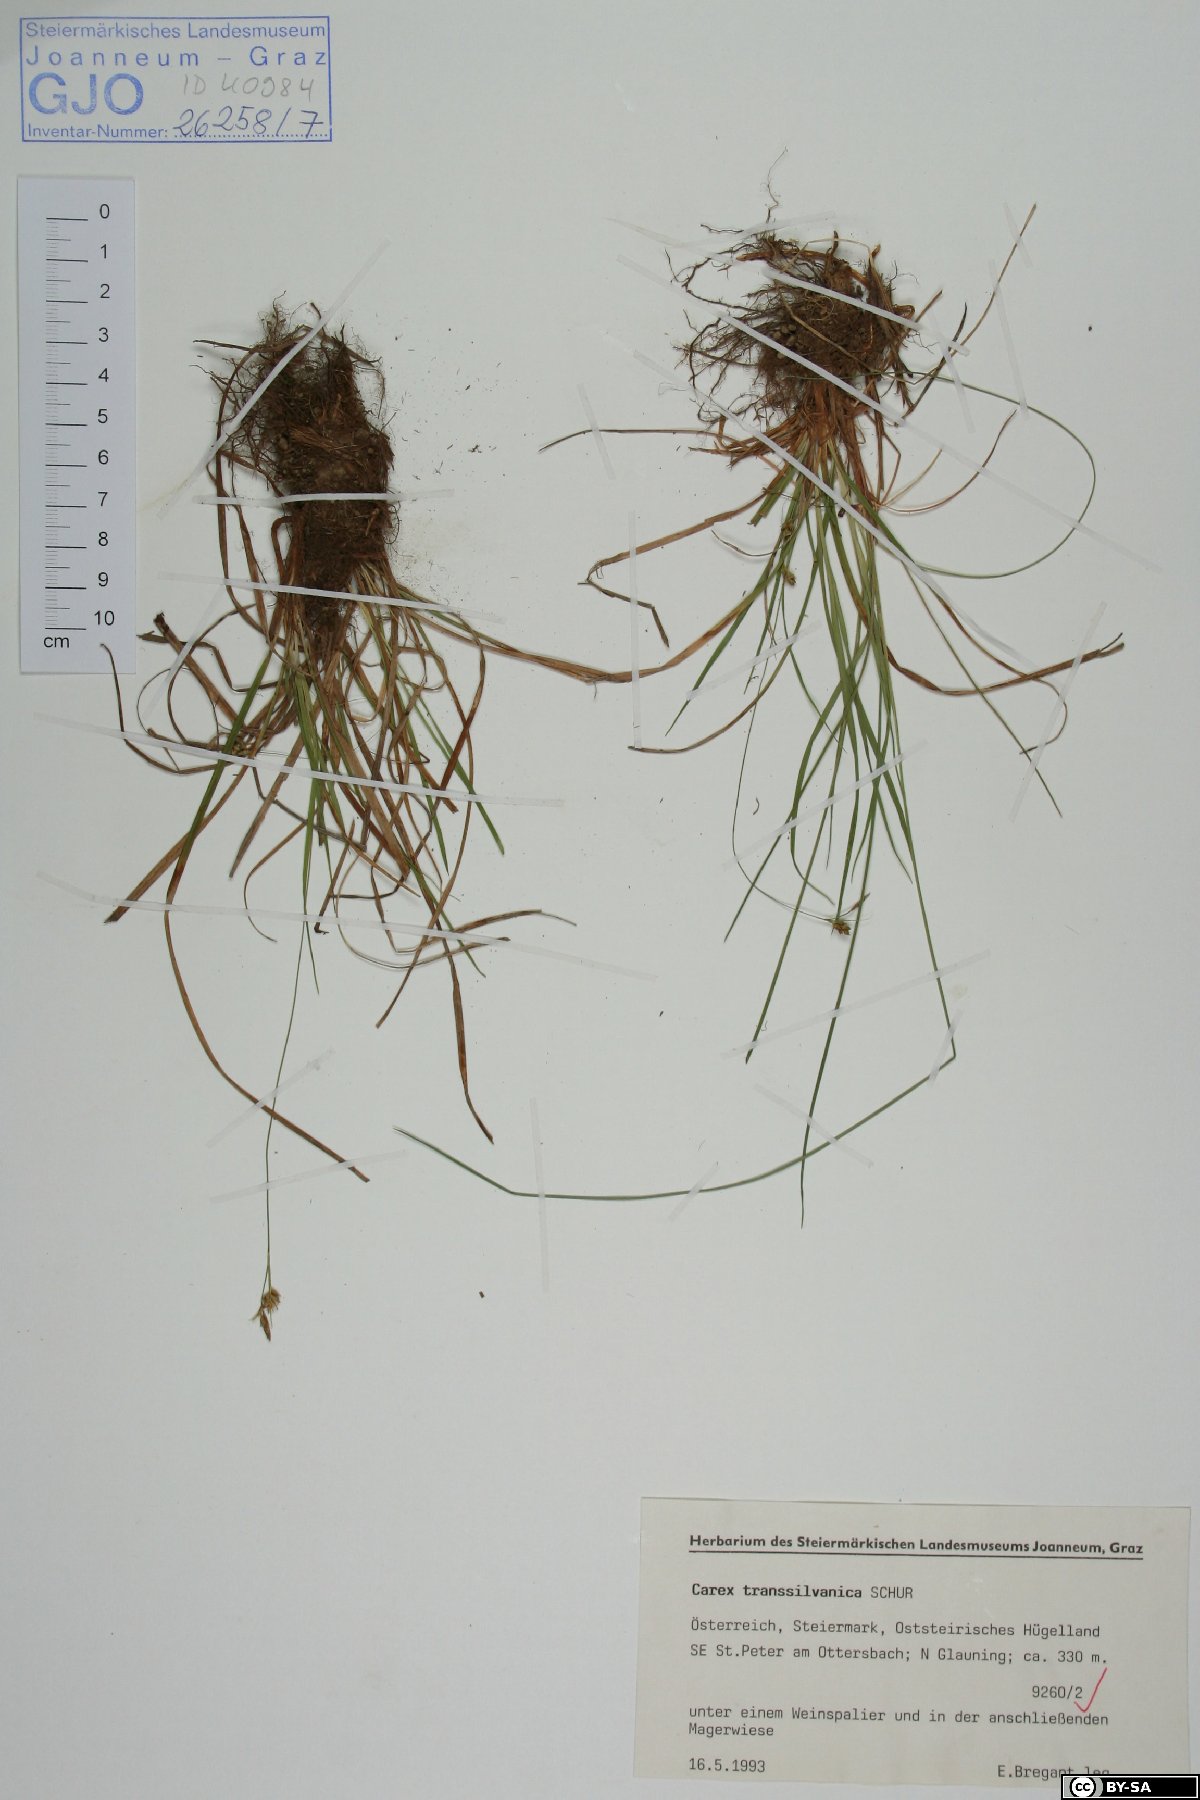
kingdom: Plantae
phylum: Tracheophyta
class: Liliopsida
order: Poales
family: Cyperaceae
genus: Carex
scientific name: Carex depressa
